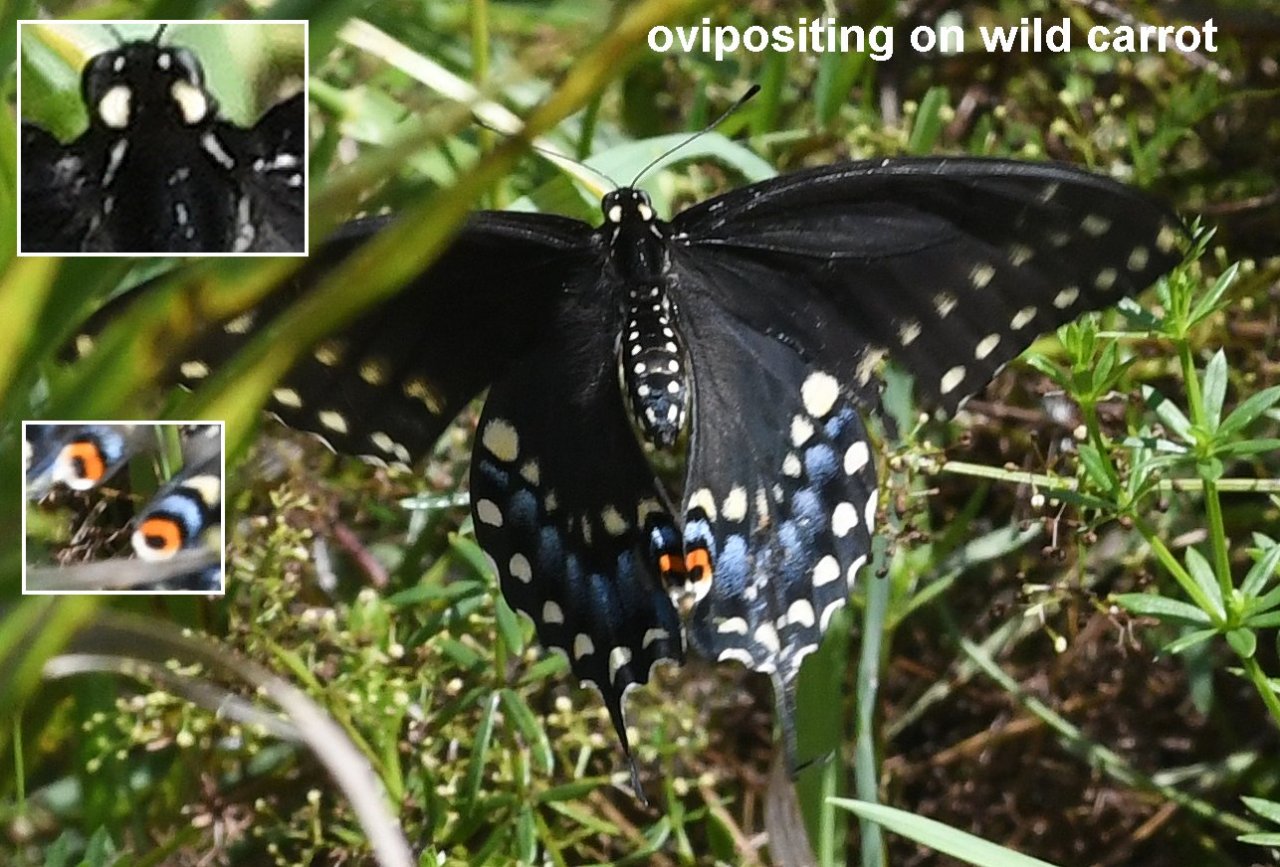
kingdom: Animalia
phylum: Arthropoda
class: Insecta
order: Lepidoptera
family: Papilionidae
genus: Papilio
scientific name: Papilio polyxenes
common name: Black Swallowtail
